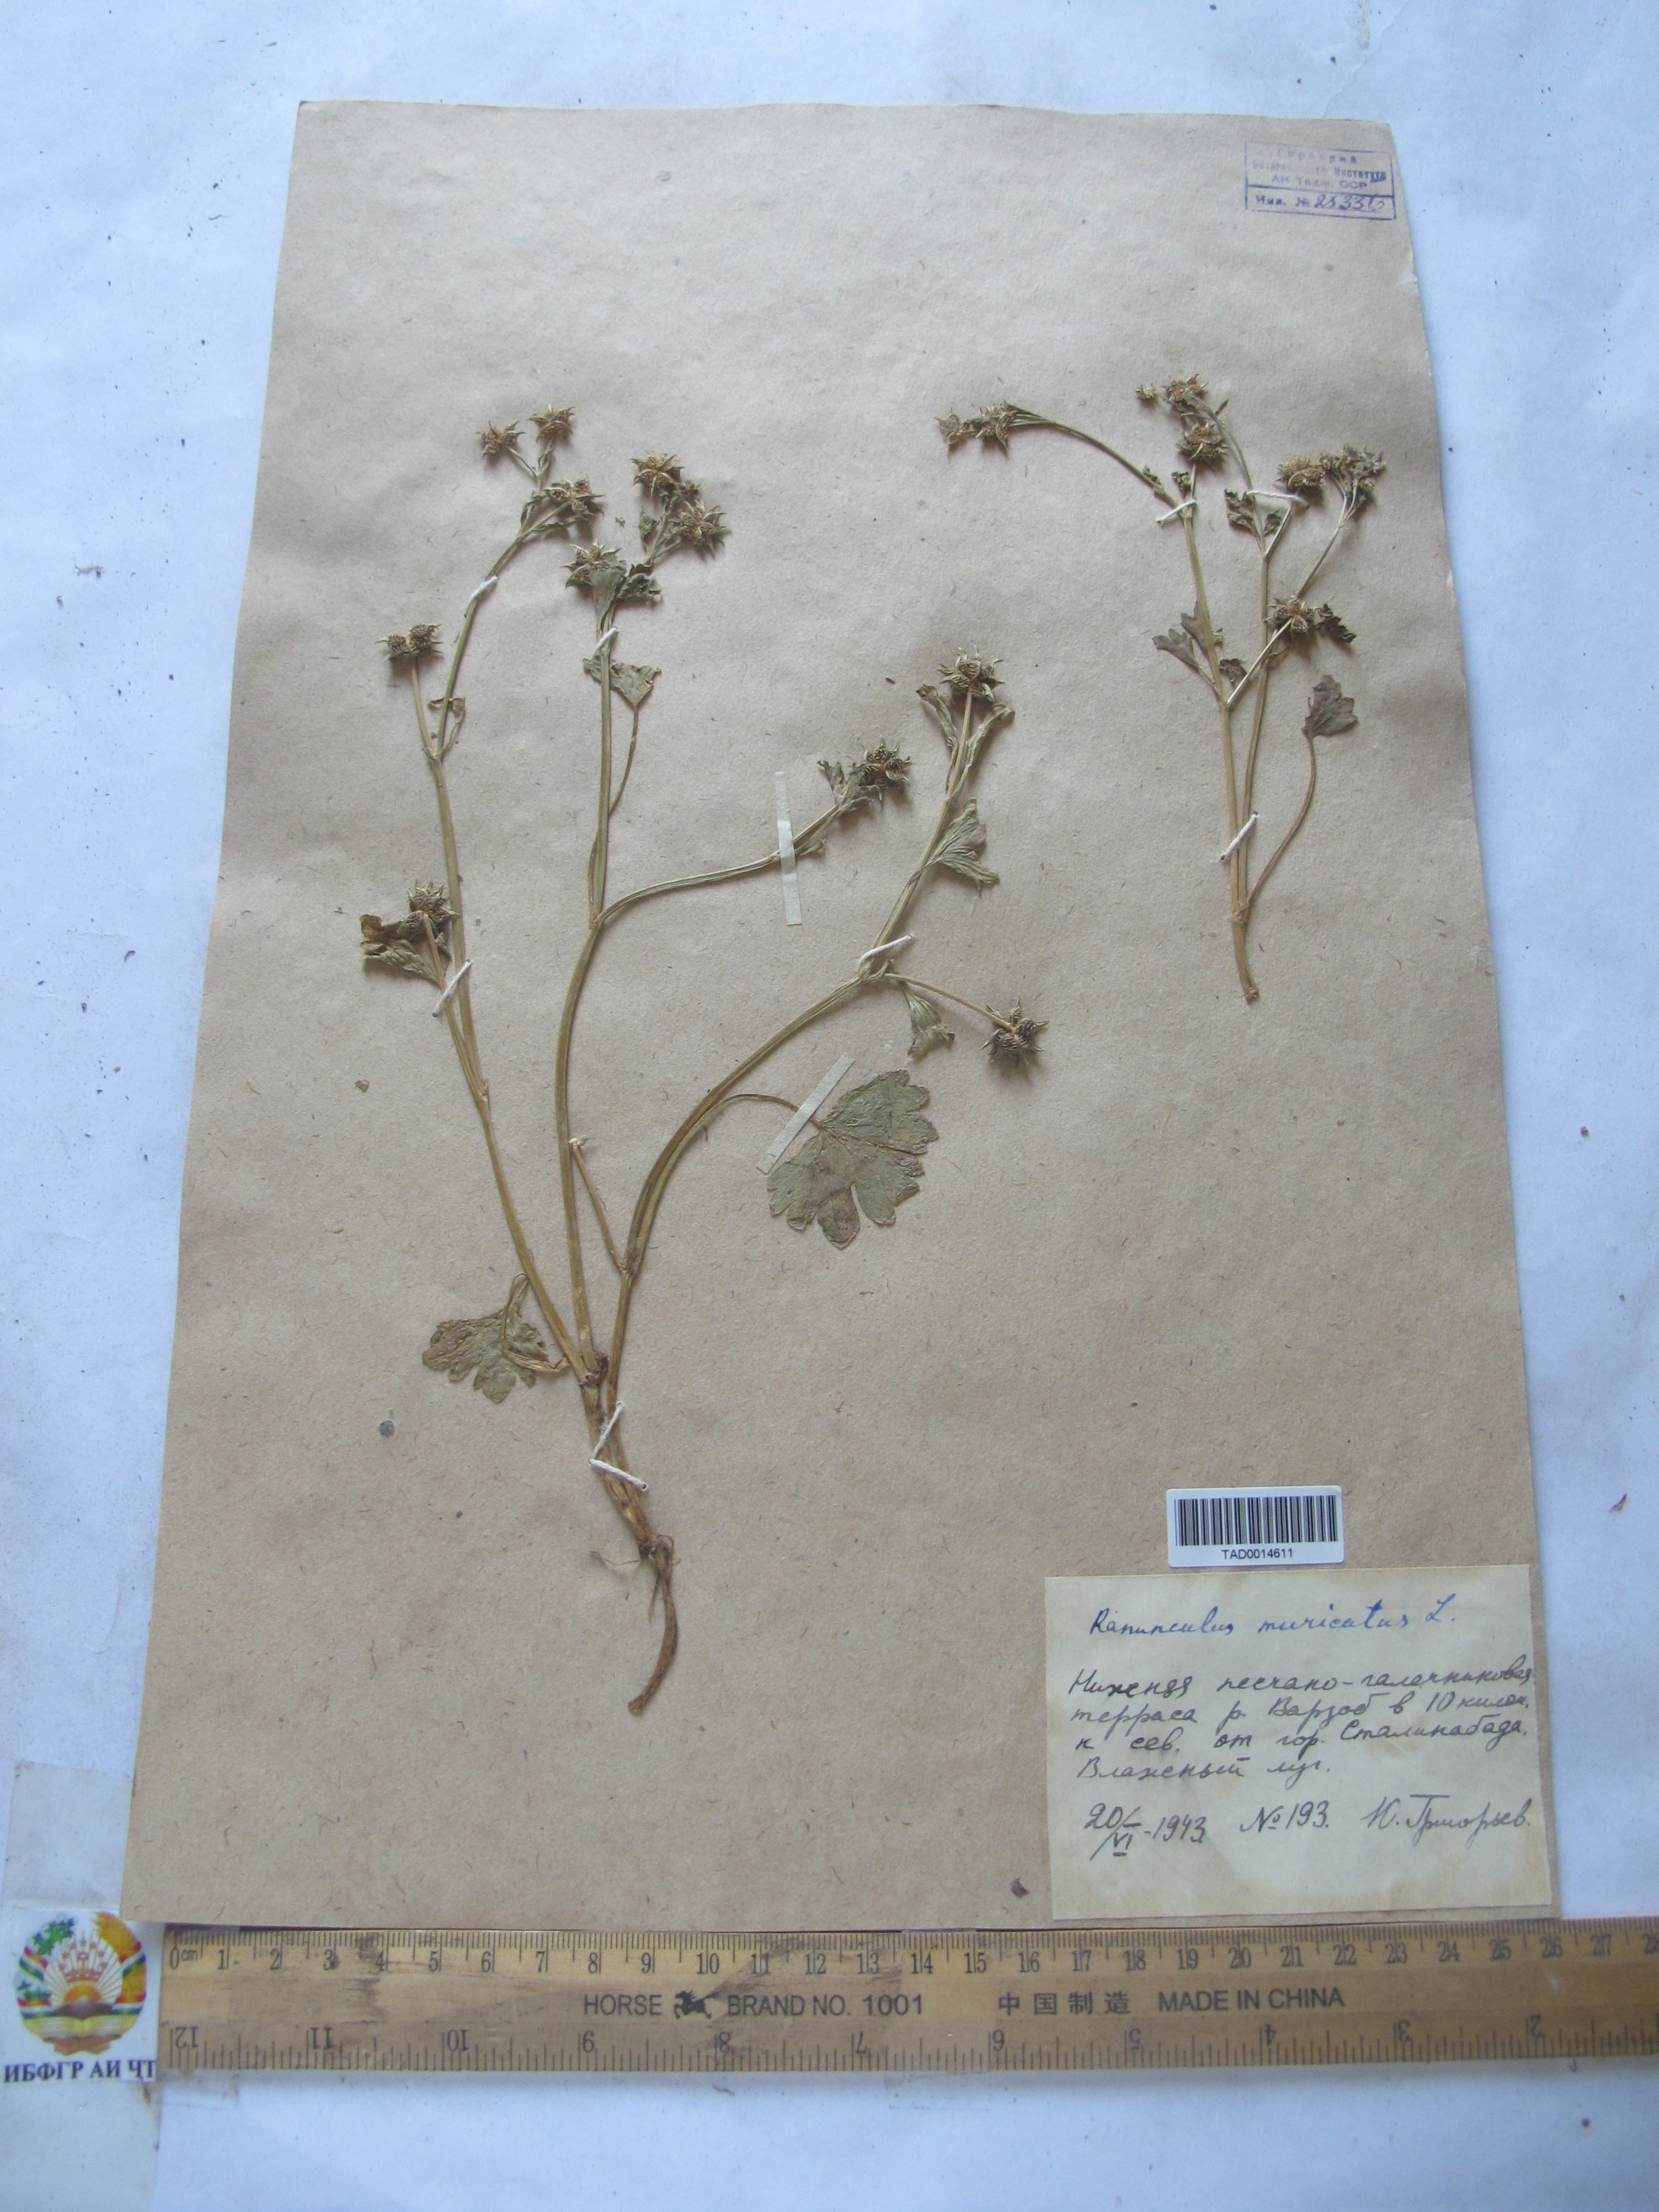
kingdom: Plantae
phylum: Tracheophyta
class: Magnoliopsida
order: Ranunculales
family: Ranunculaceae
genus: Ranunculus
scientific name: Ranunculus muricatus
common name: Rough-fruited buttercup
